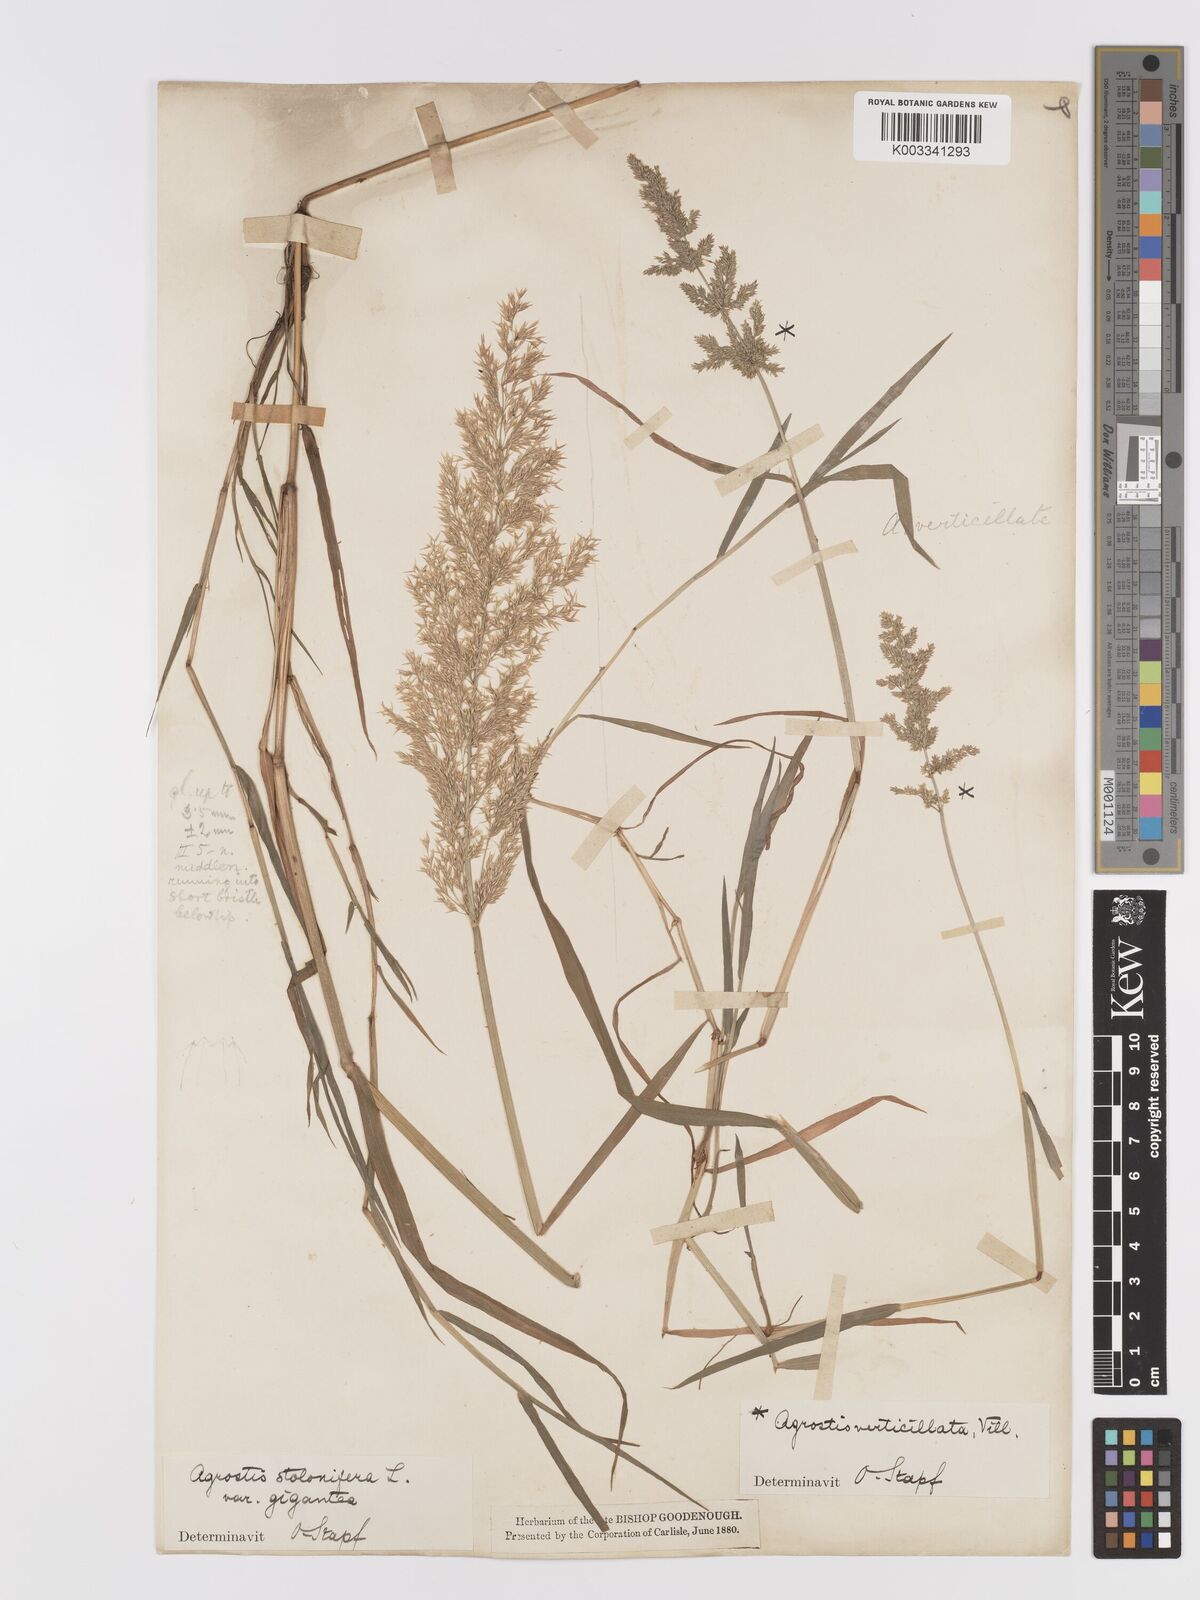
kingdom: Plantae
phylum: Tracheophyta
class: Liliopsida
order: Poales
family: Poaceae
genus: Agrostis
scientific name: Agrostis gigantea
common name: Black bent
